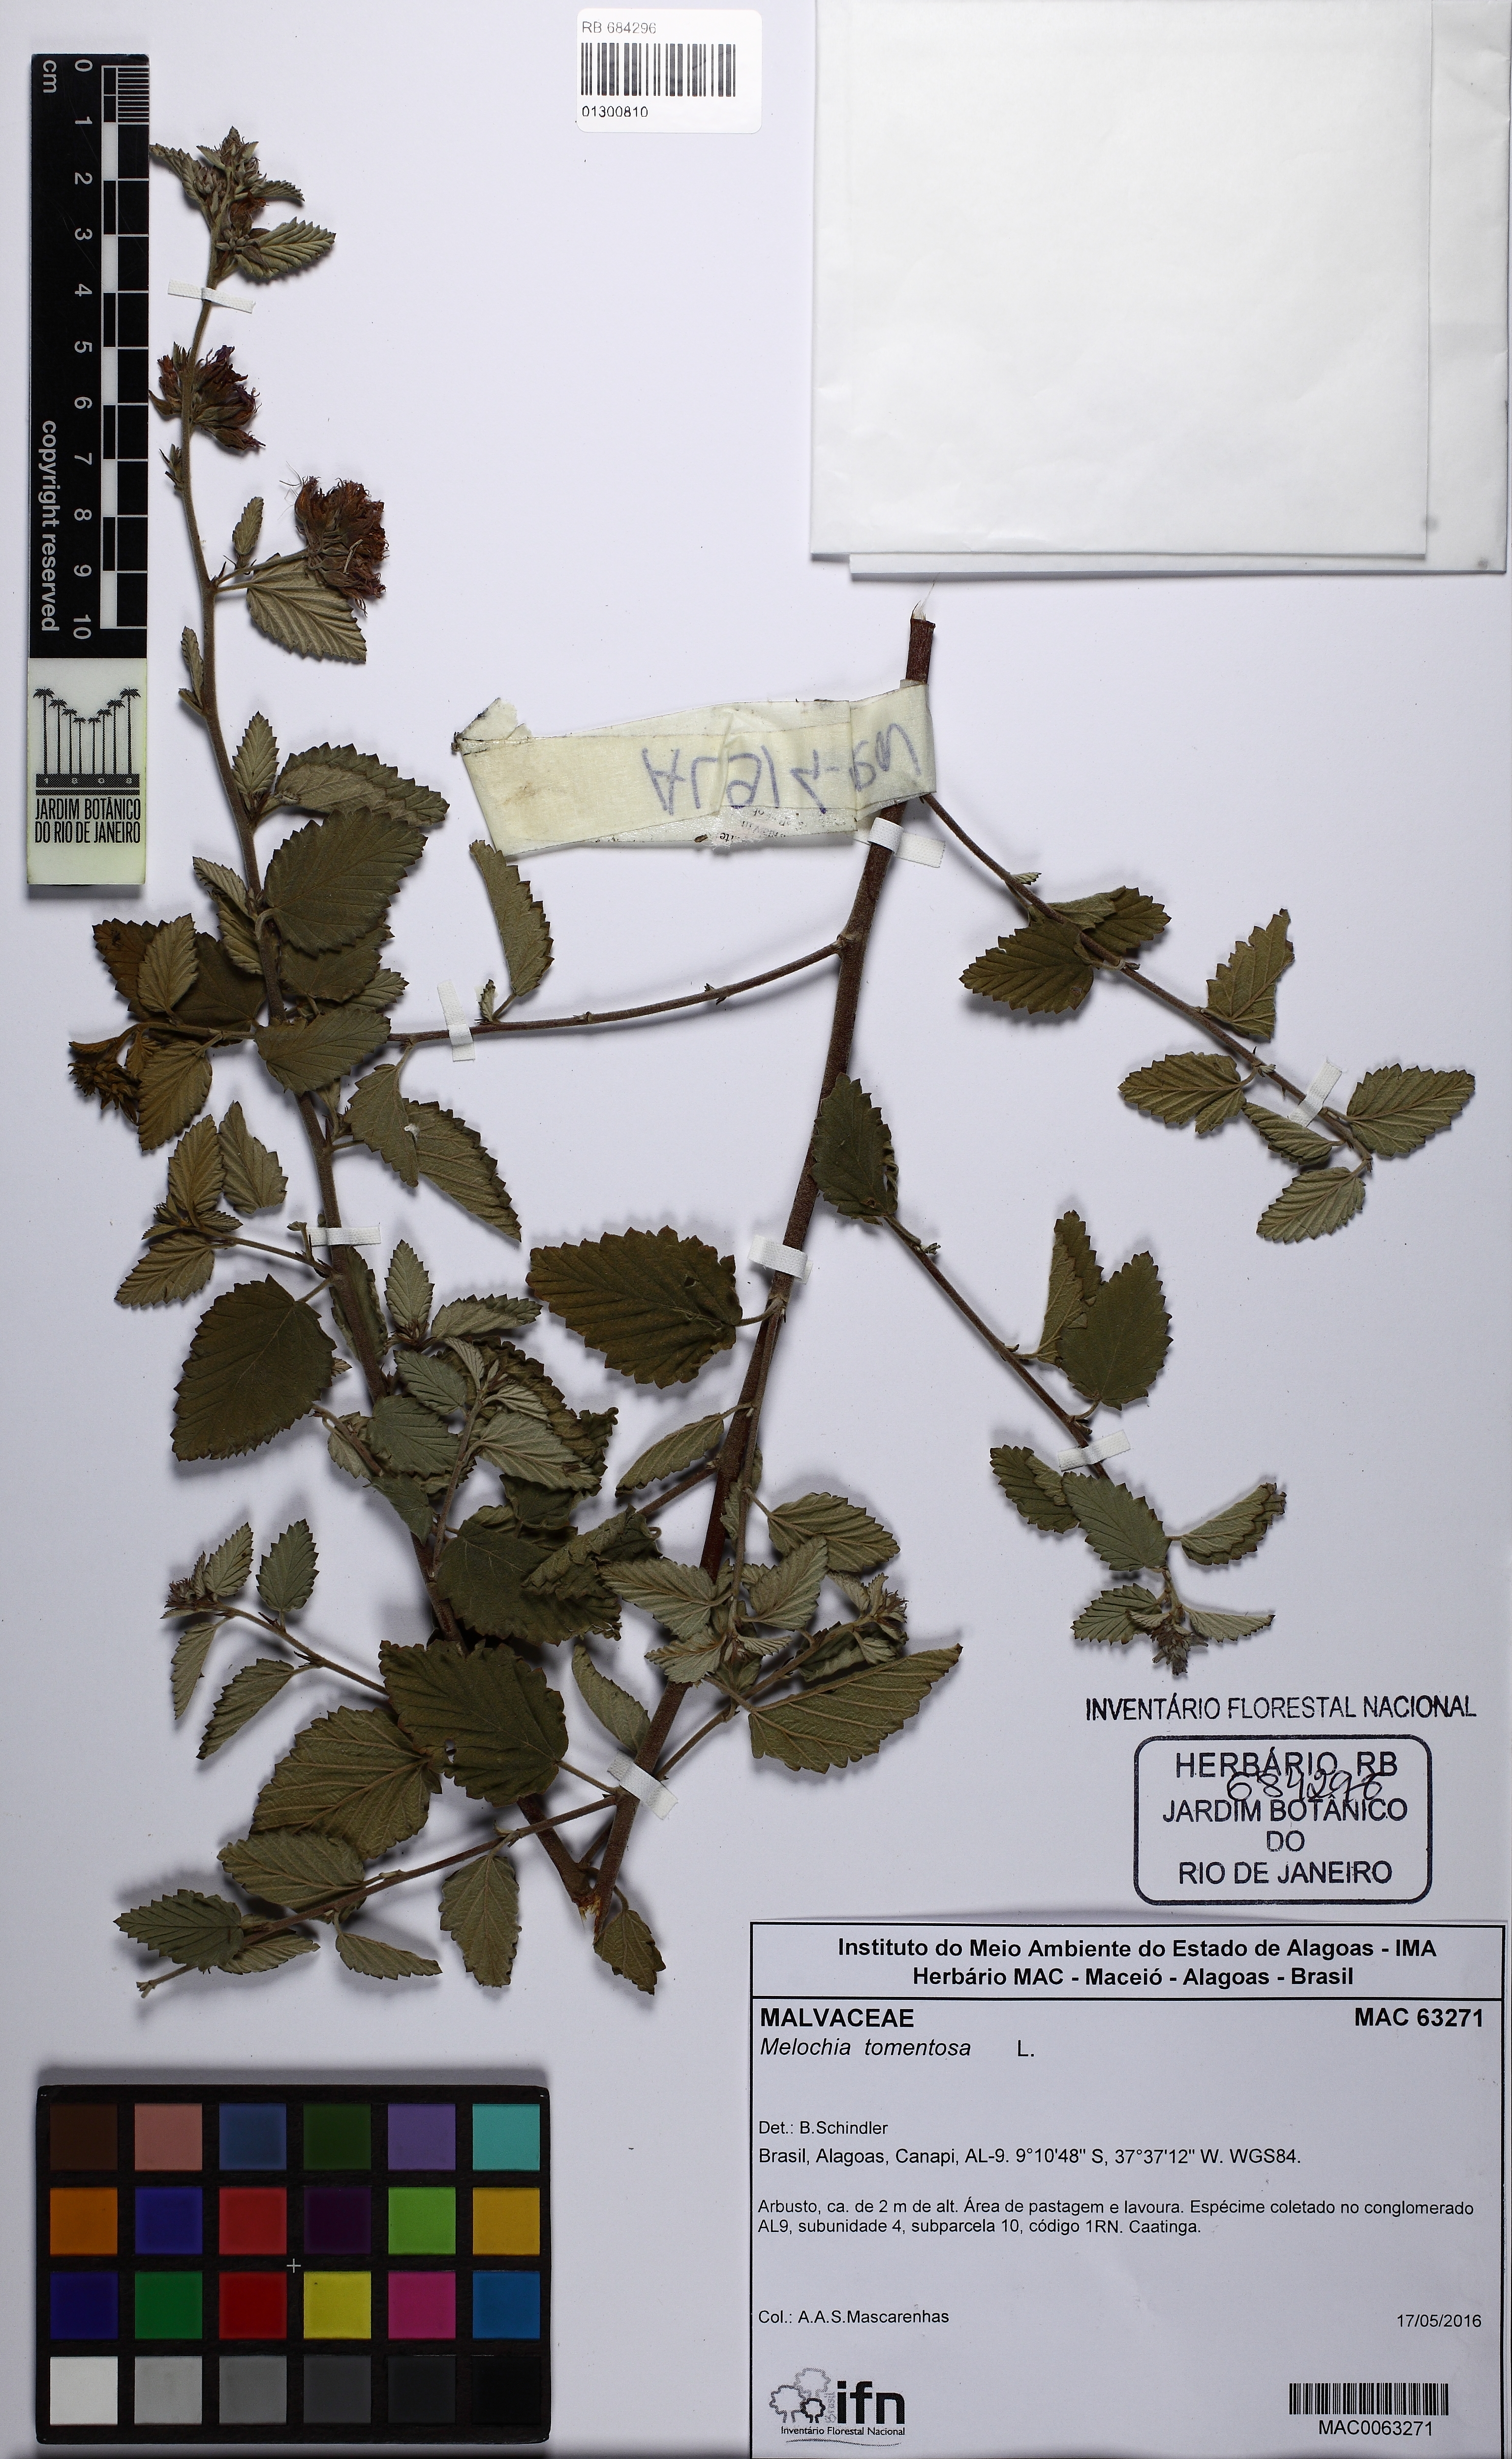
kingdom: Plantae
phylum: Tracheophyta
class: Magnoliopsida
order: Malvales
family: Malvaceae
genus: Melochia
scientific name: Melochia tomentosa
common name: Black torch
